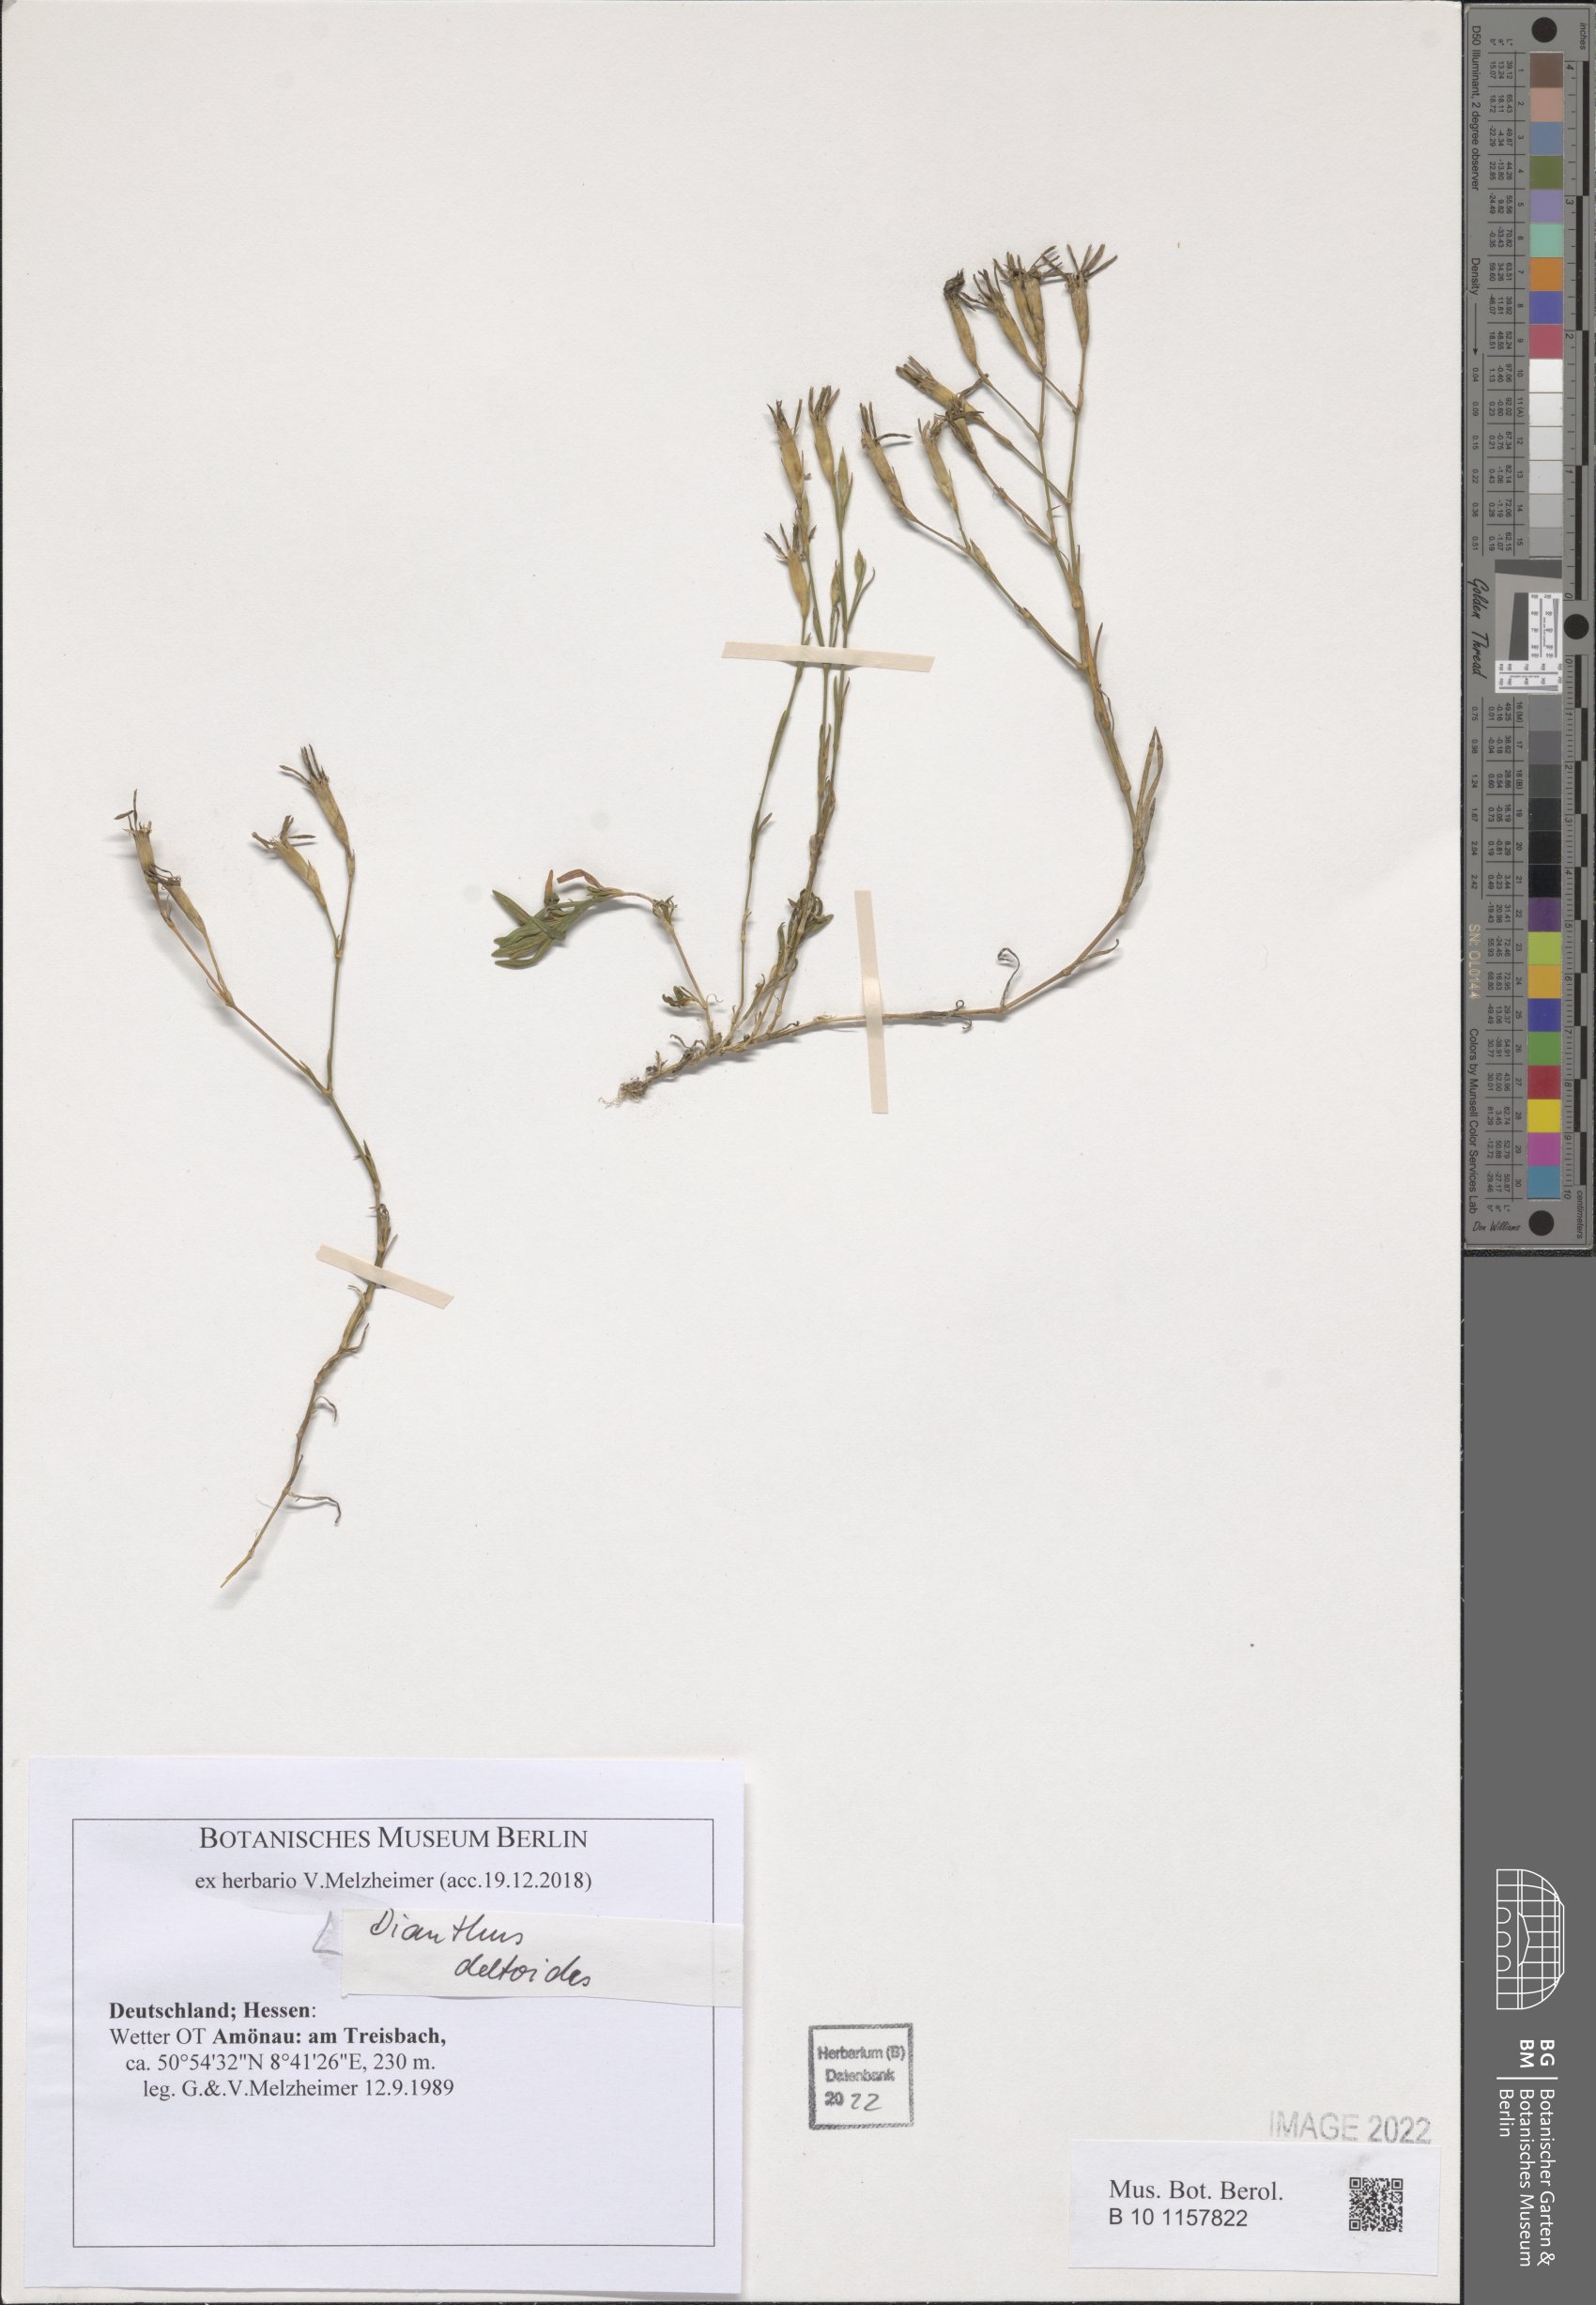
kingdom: Plantae
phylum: Tracheophyta
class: Magnoliopsida
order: Caryophyllales
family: Caryophyllaceae
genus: Dianthus
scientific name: Dianthus deltoides
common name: Maiden pink
